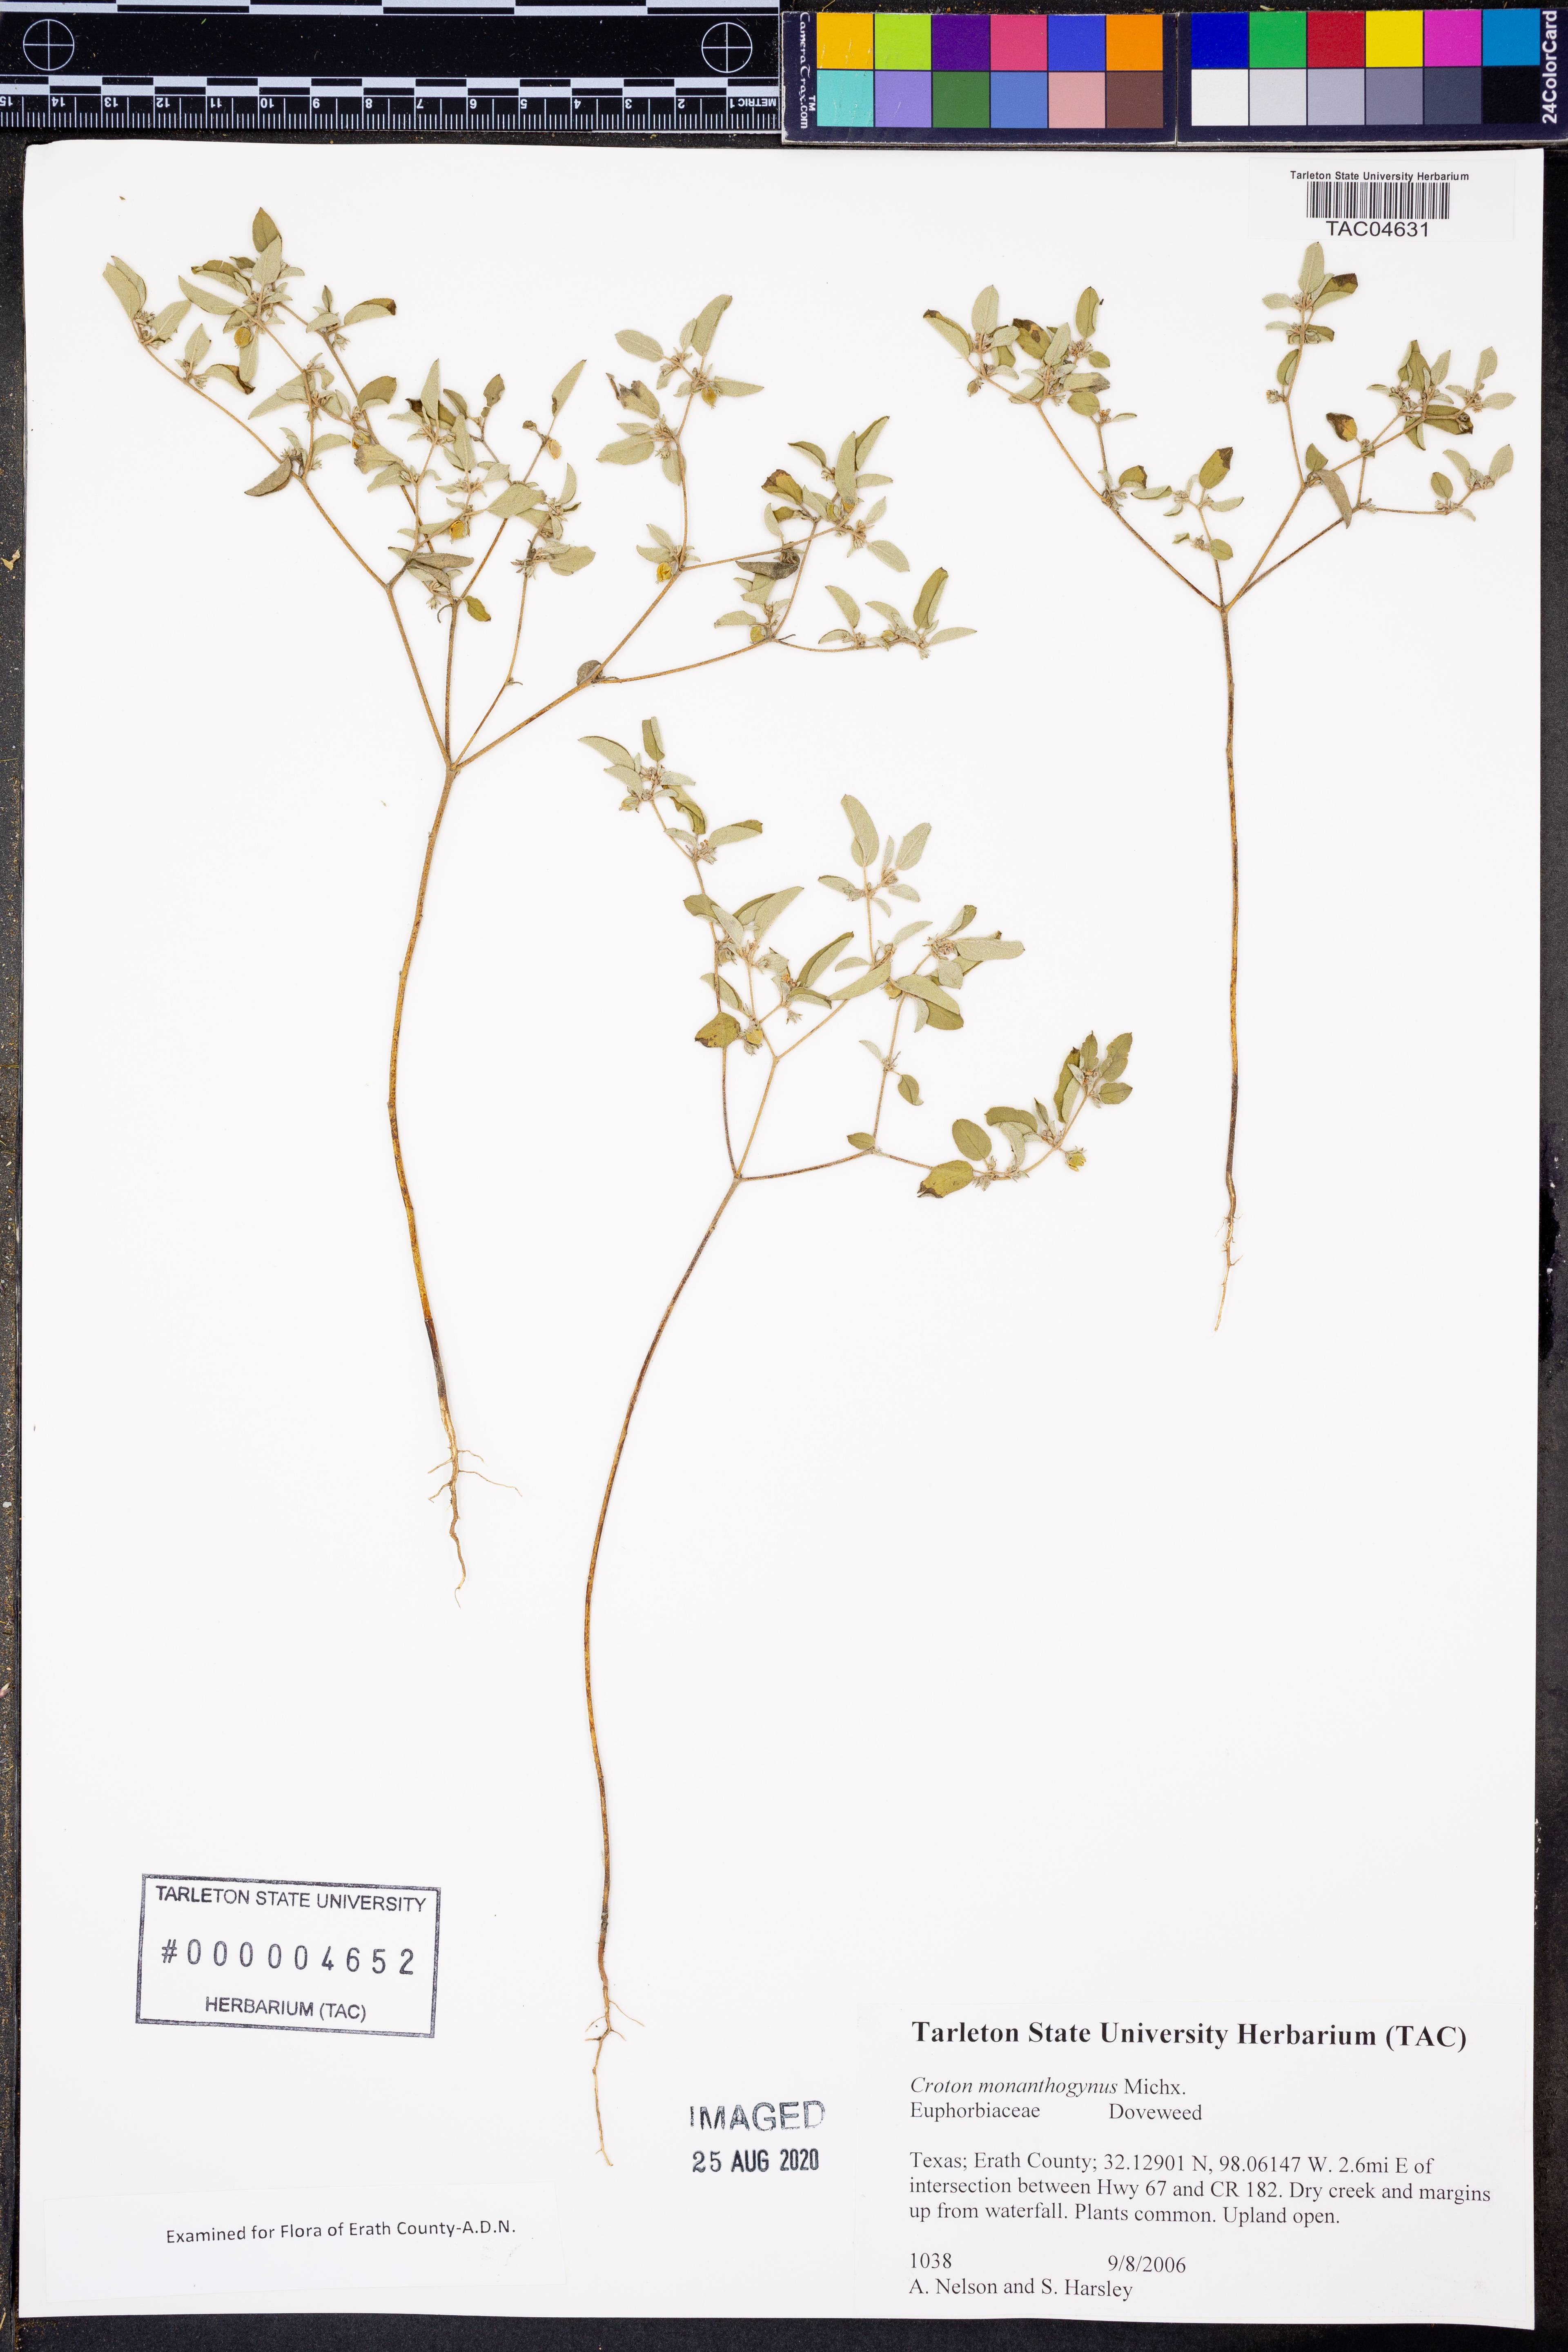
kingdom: Plantae
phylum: Tracheophyta
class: Magnoliopsida
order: Malpighiales
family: Euphorbiaceae
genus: Croton
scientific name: Croton monanthogynus
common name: One-seed croton
